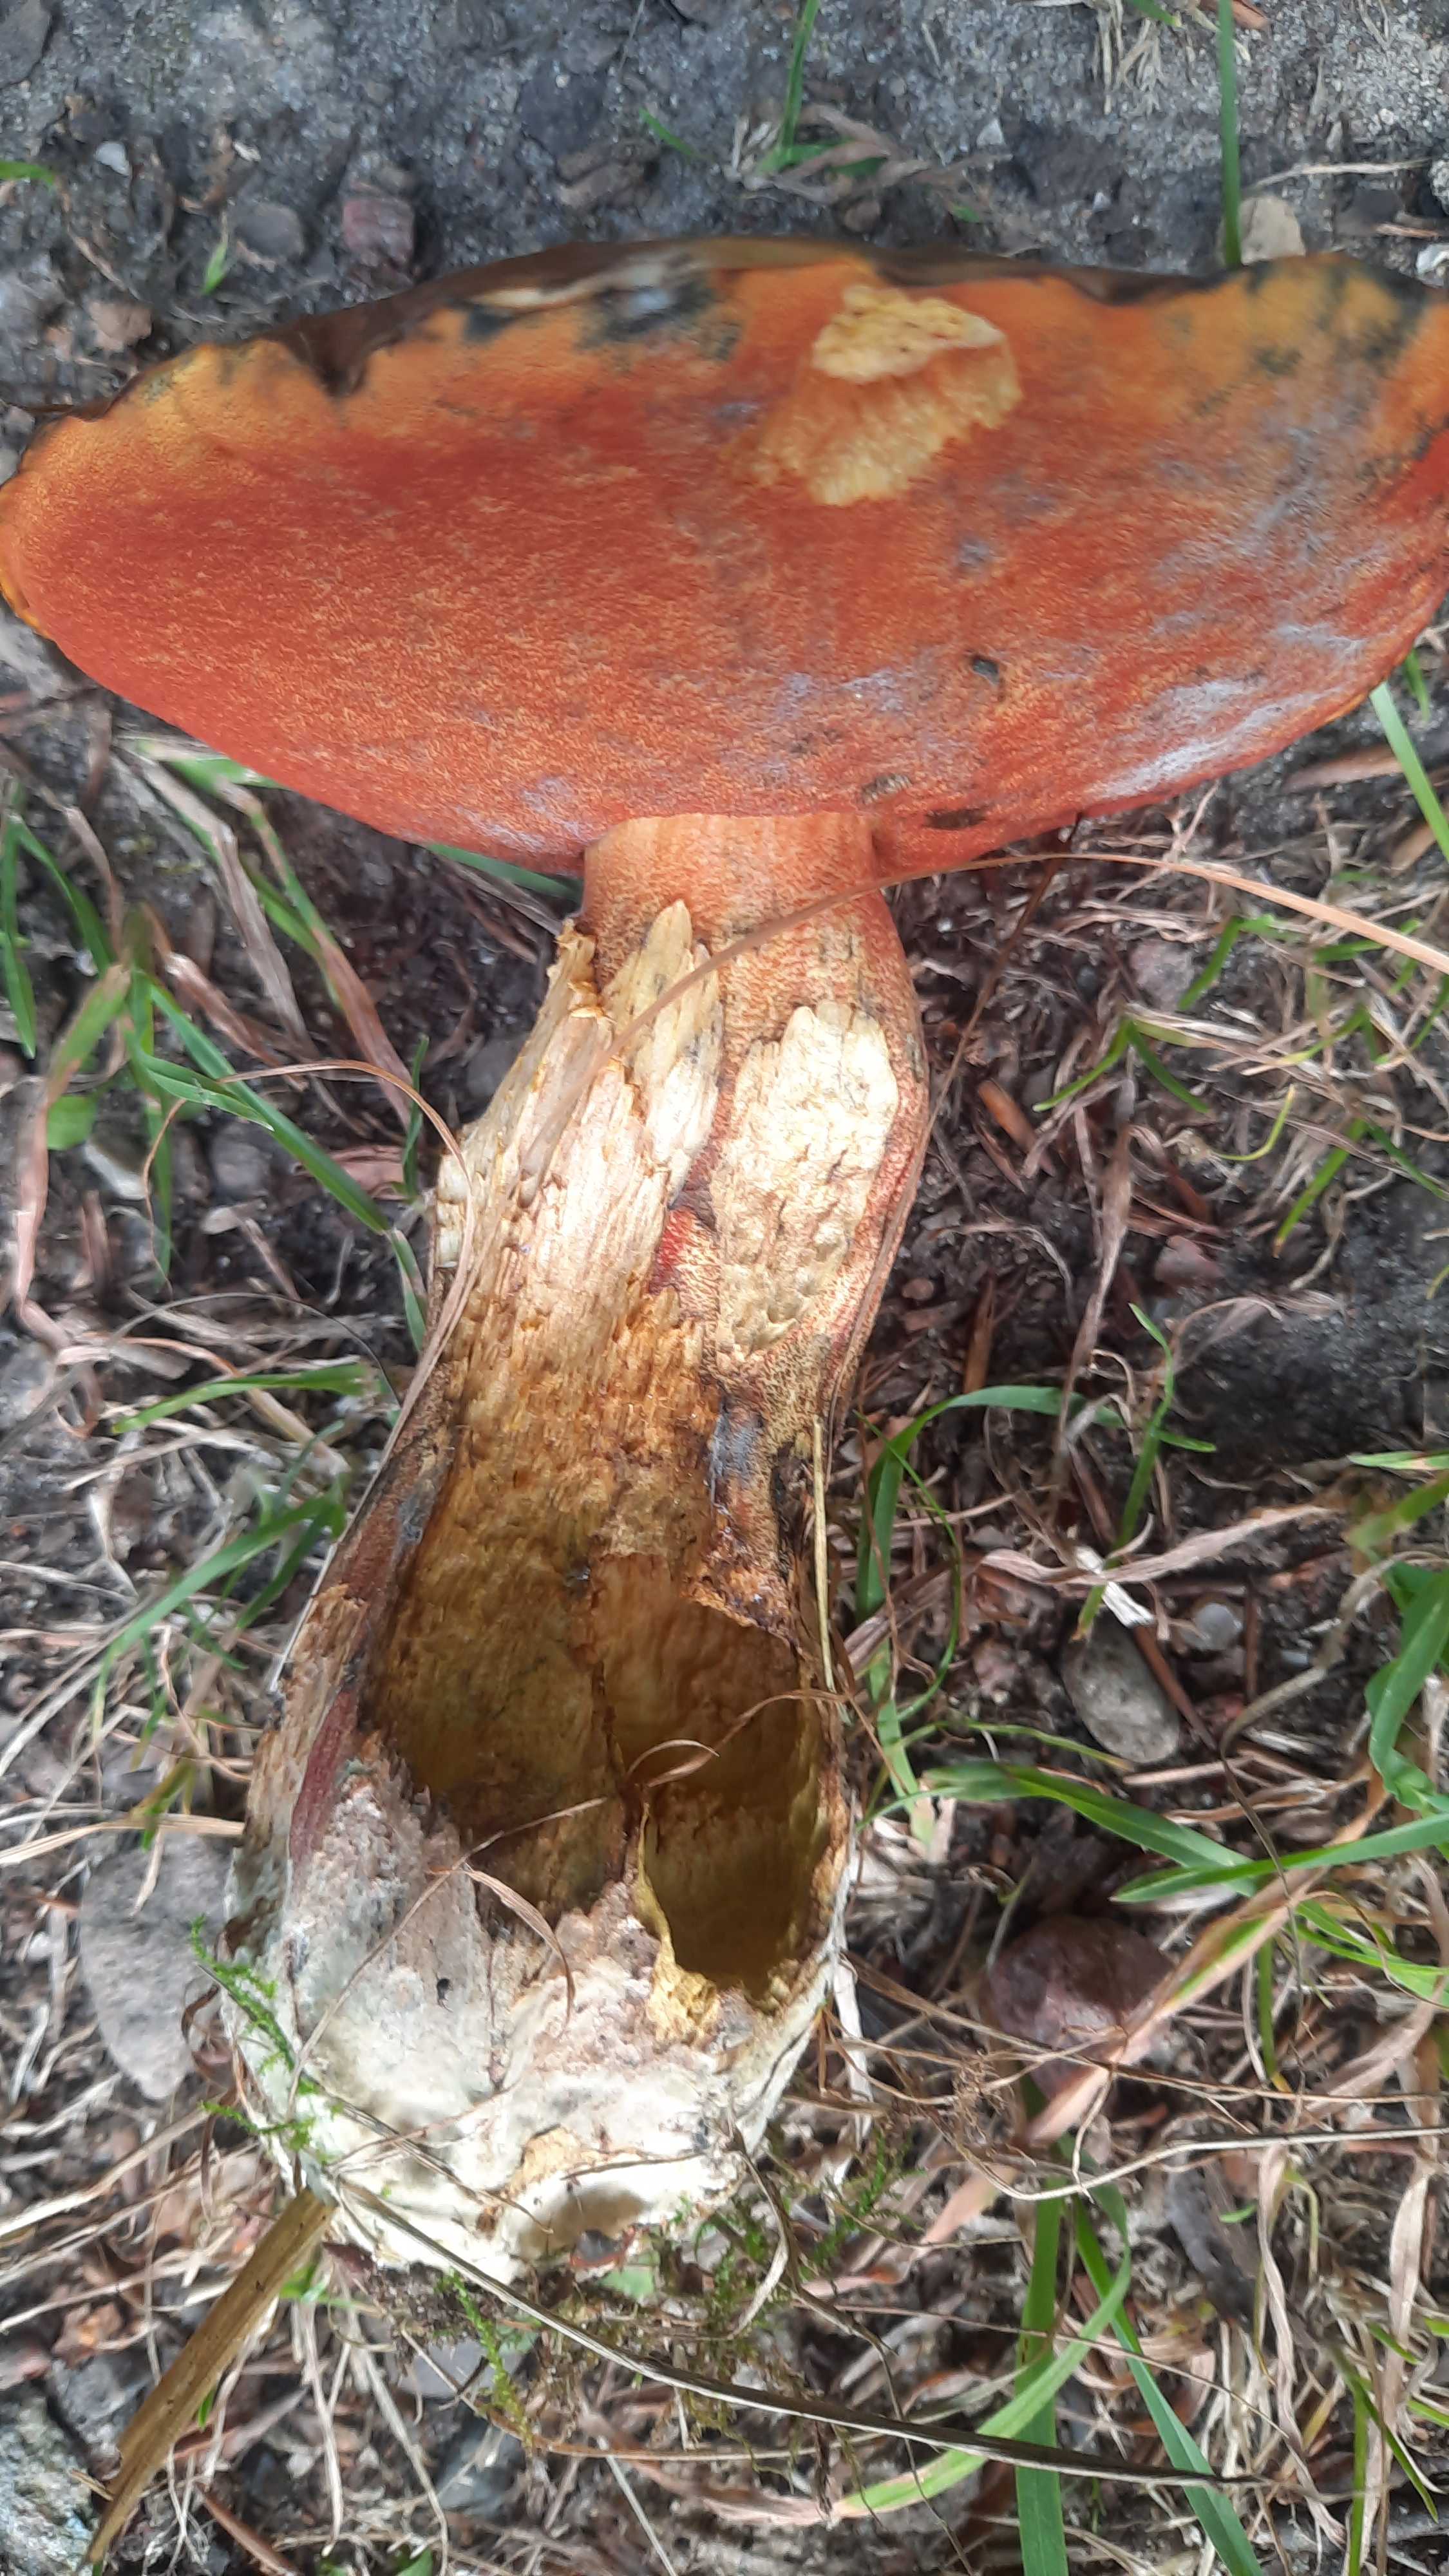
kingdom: Fungi
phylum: Basidiomycota
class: Agaricomycetes
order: Boletales
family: Boletaceae
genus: Neoboletus
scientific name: Neoboletus erythropus
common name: punktstokket indigorørhat
